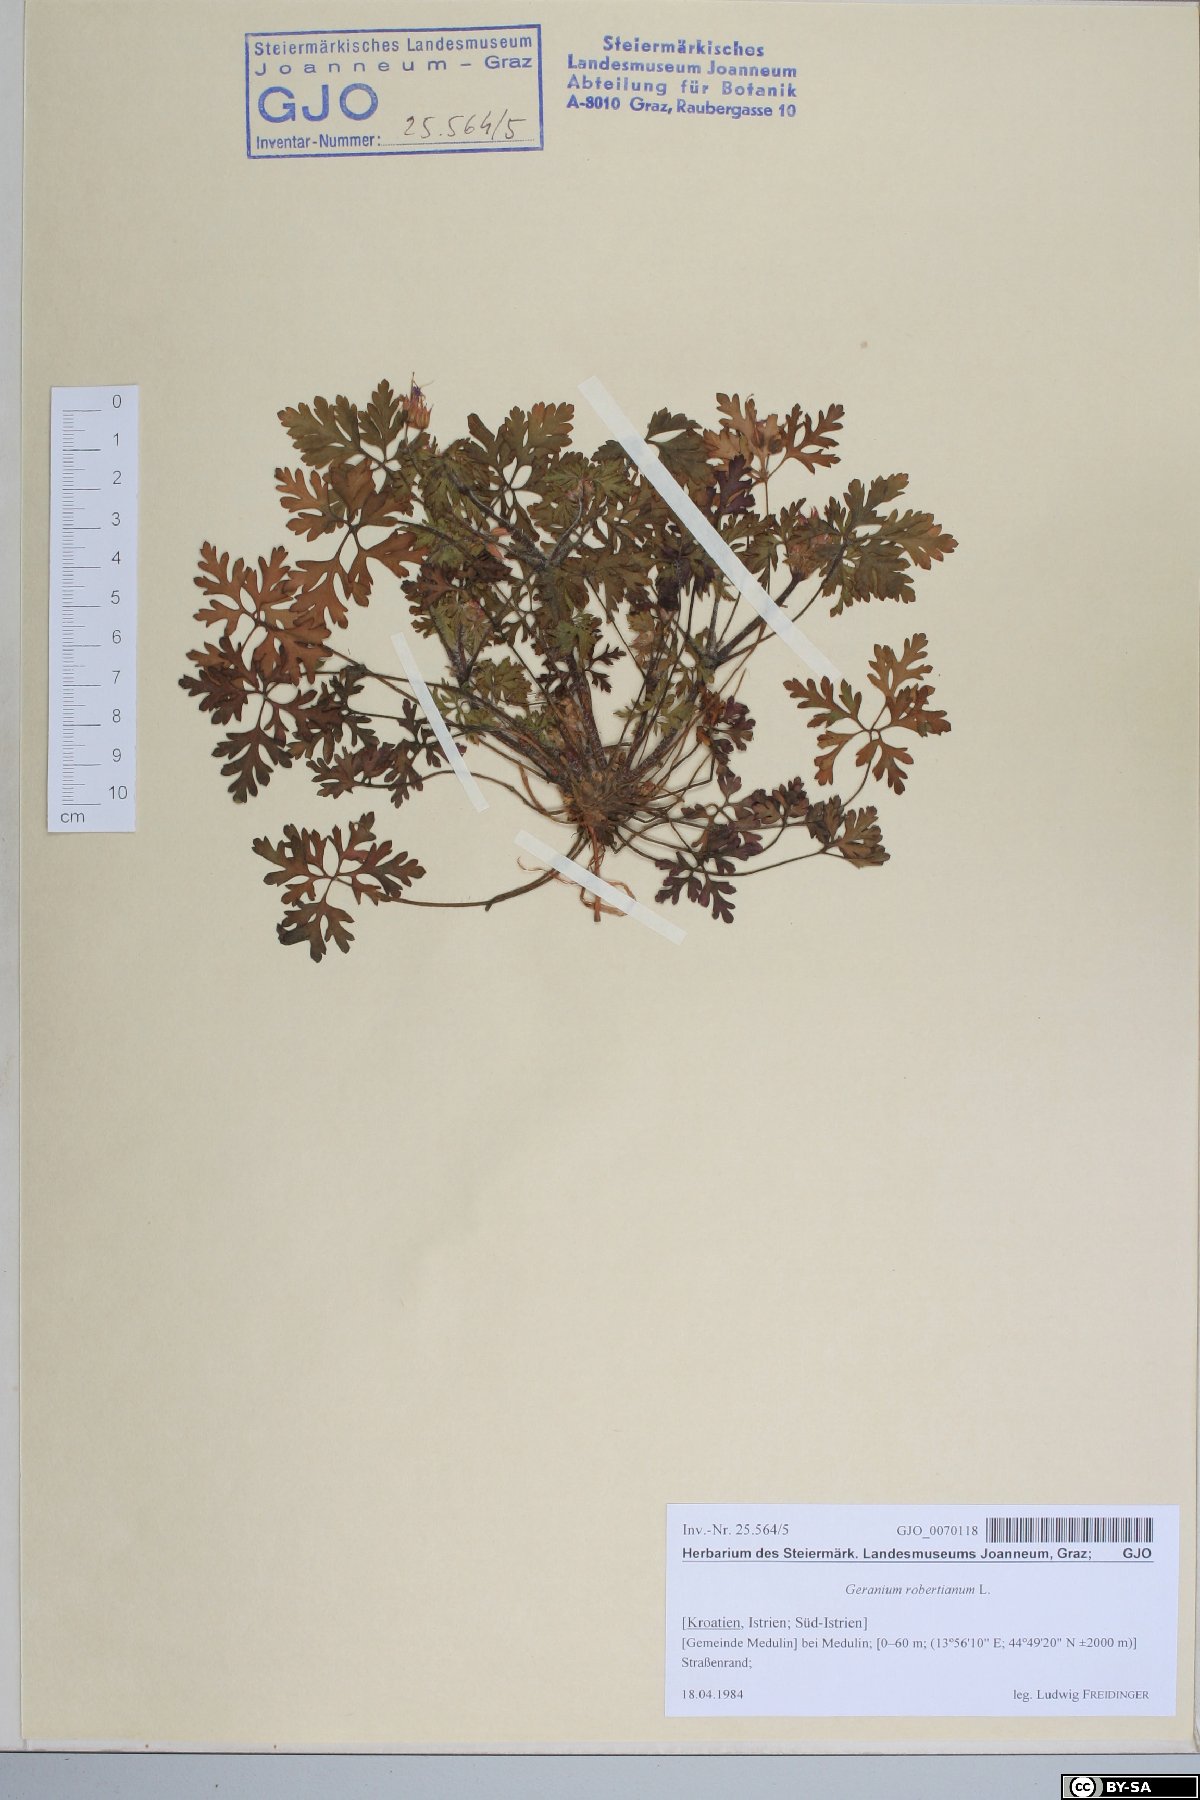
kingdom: Plantae
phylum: Tracheophyta
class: Magnoliopsida
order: Geraniales
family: Geraniaceae
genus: Geranium
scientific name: Geranium purpureum
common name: Little-robin
